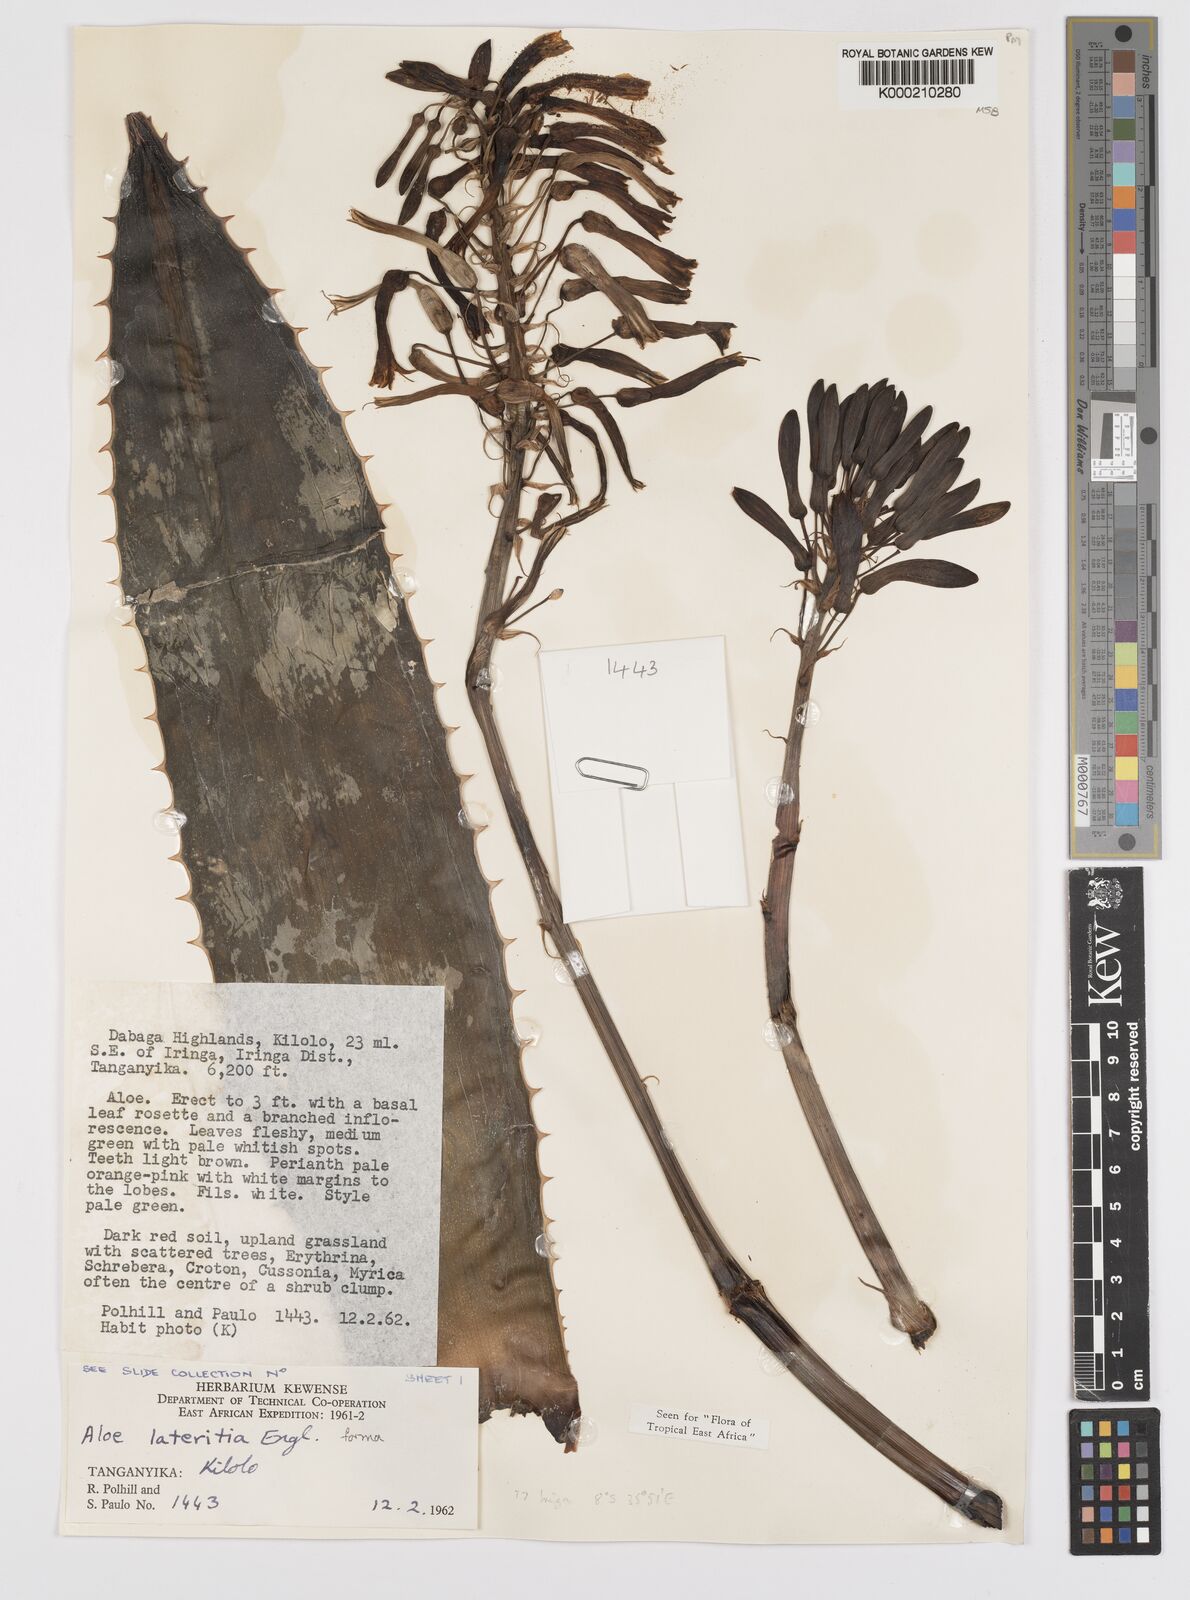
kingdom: Plantae
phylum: Tracheophyta
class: Liliopsida
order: Asparagales
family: Asphodelaceae
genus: Aloe
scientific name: Aloe lateritia
